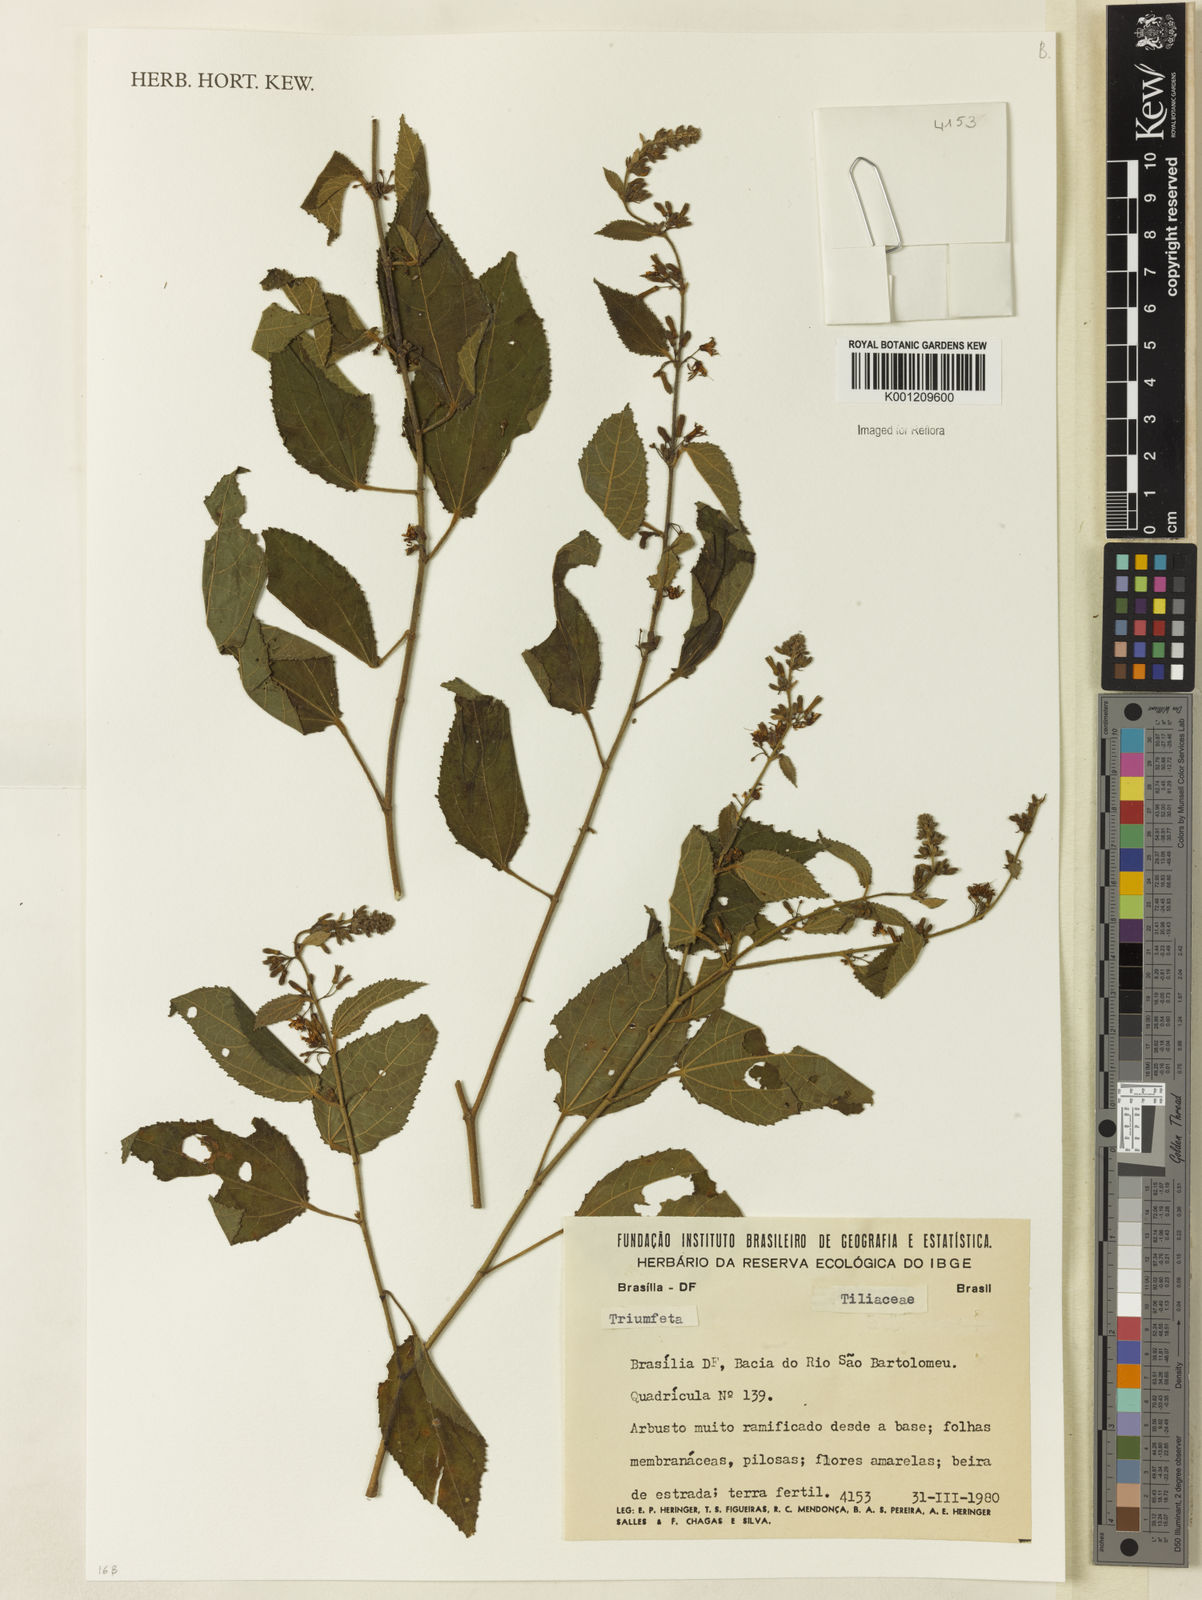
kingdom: Plantae
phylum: Tracheophyta
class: Magnoliopsida
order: Malvales
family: Malvaceae
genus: Triumfetta
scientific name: Triumfetta
